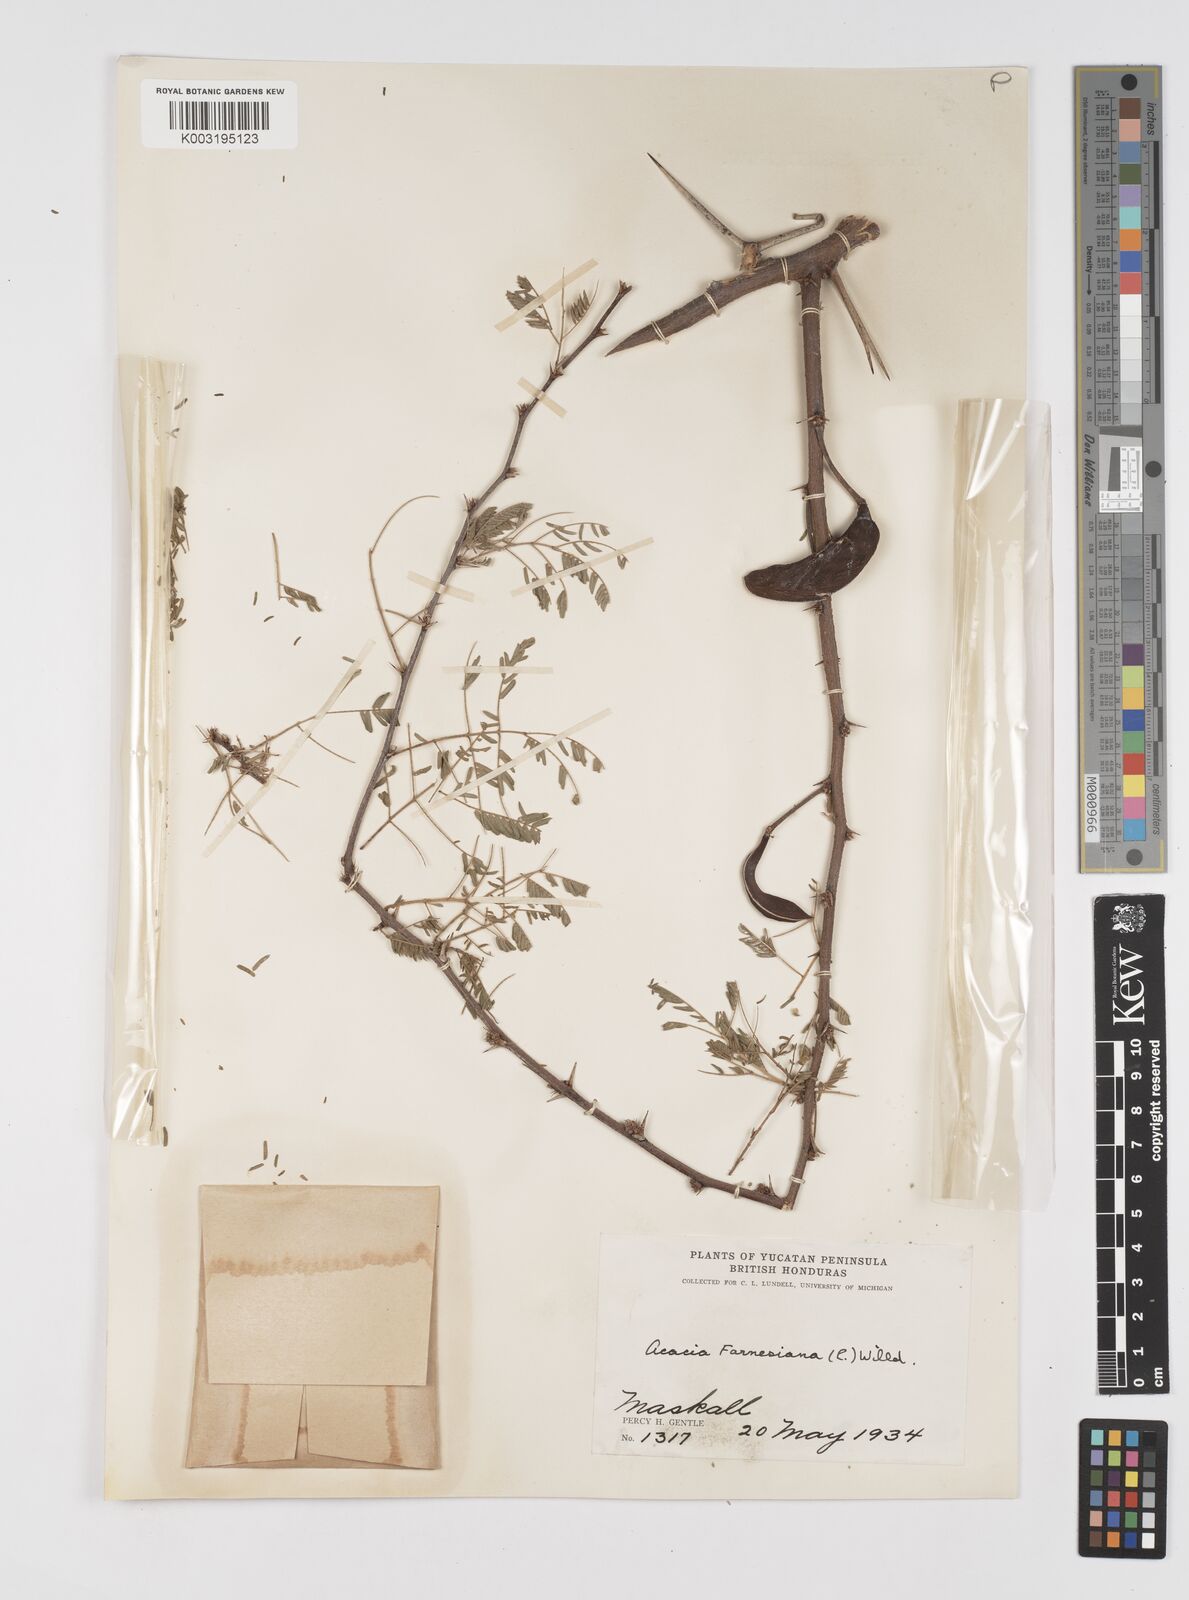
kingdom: Plantae
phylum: Tracheophyta
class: Magnoliopsida
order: Fabales
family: Fabaceae
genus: Vachellia
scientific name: Vachellia farnesiana
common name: Sweet acacia
